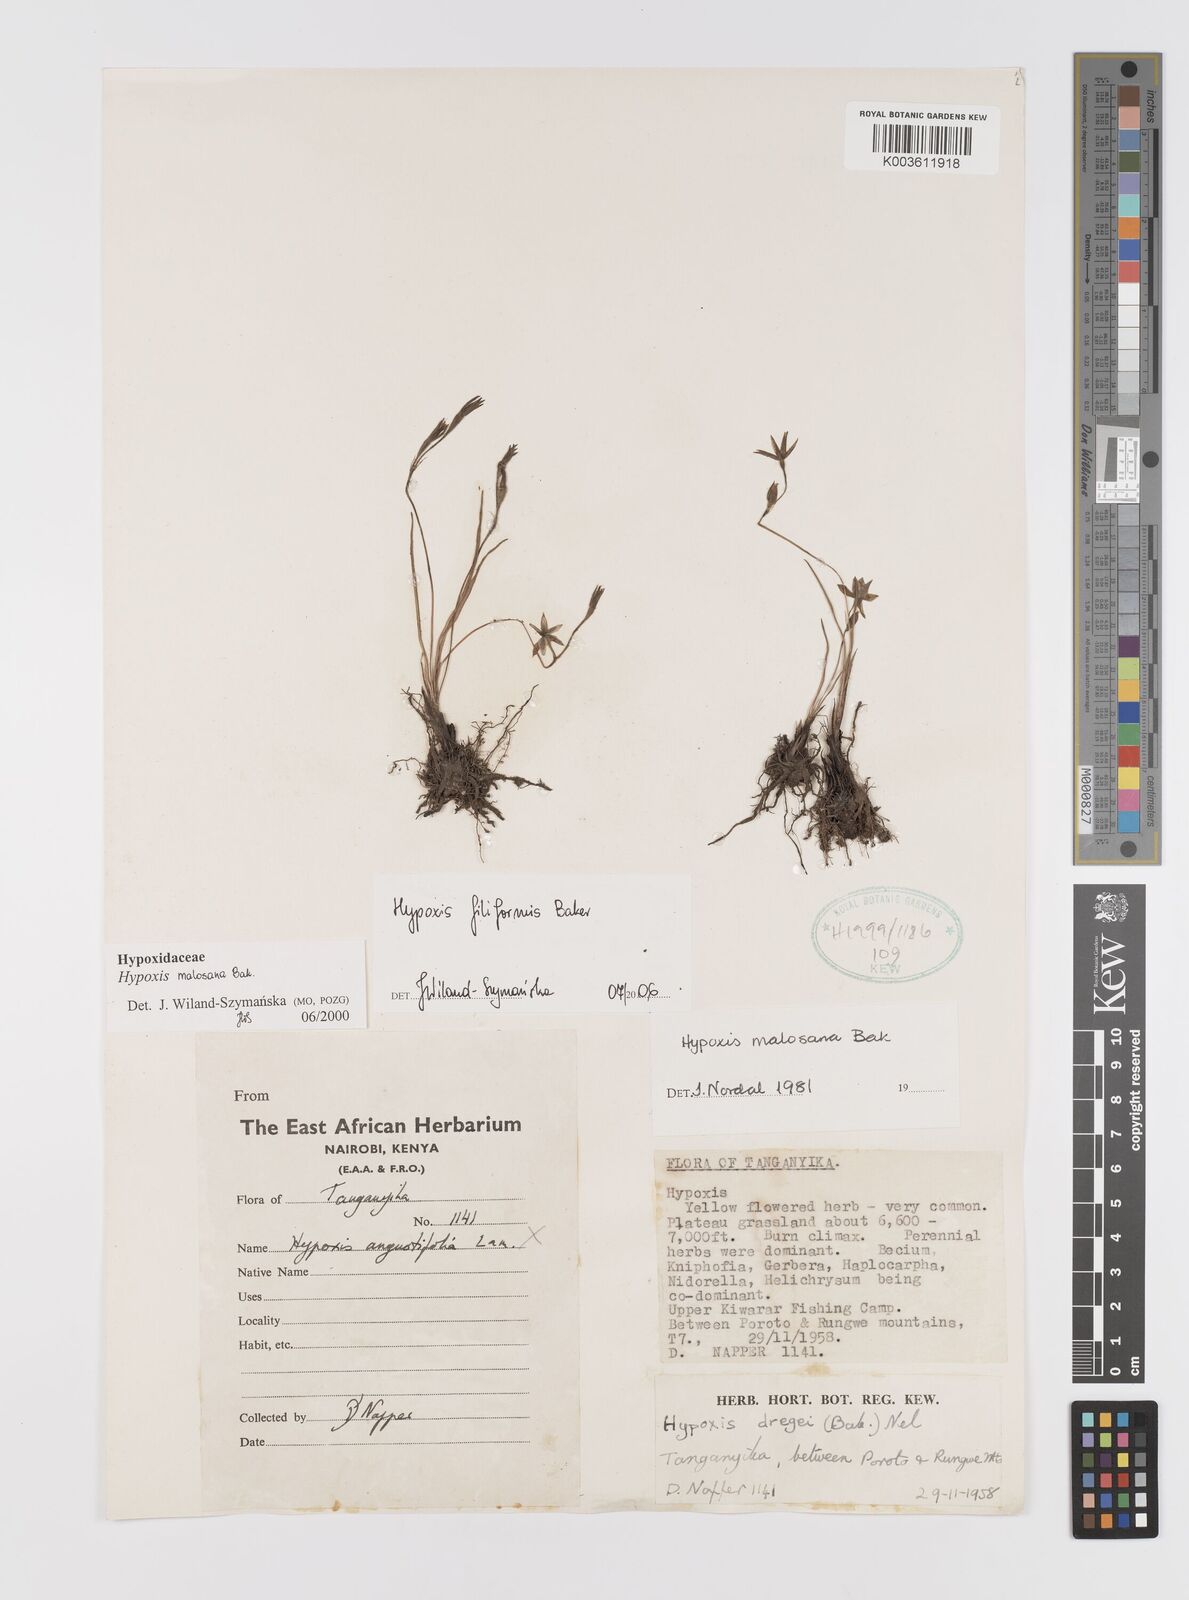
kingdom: Plantae
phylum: Tracheophyta
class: Liliopsida
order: Asparagales
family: Hypoxidaceae
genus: Hypoxis
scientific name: Hypoxis filiformis
